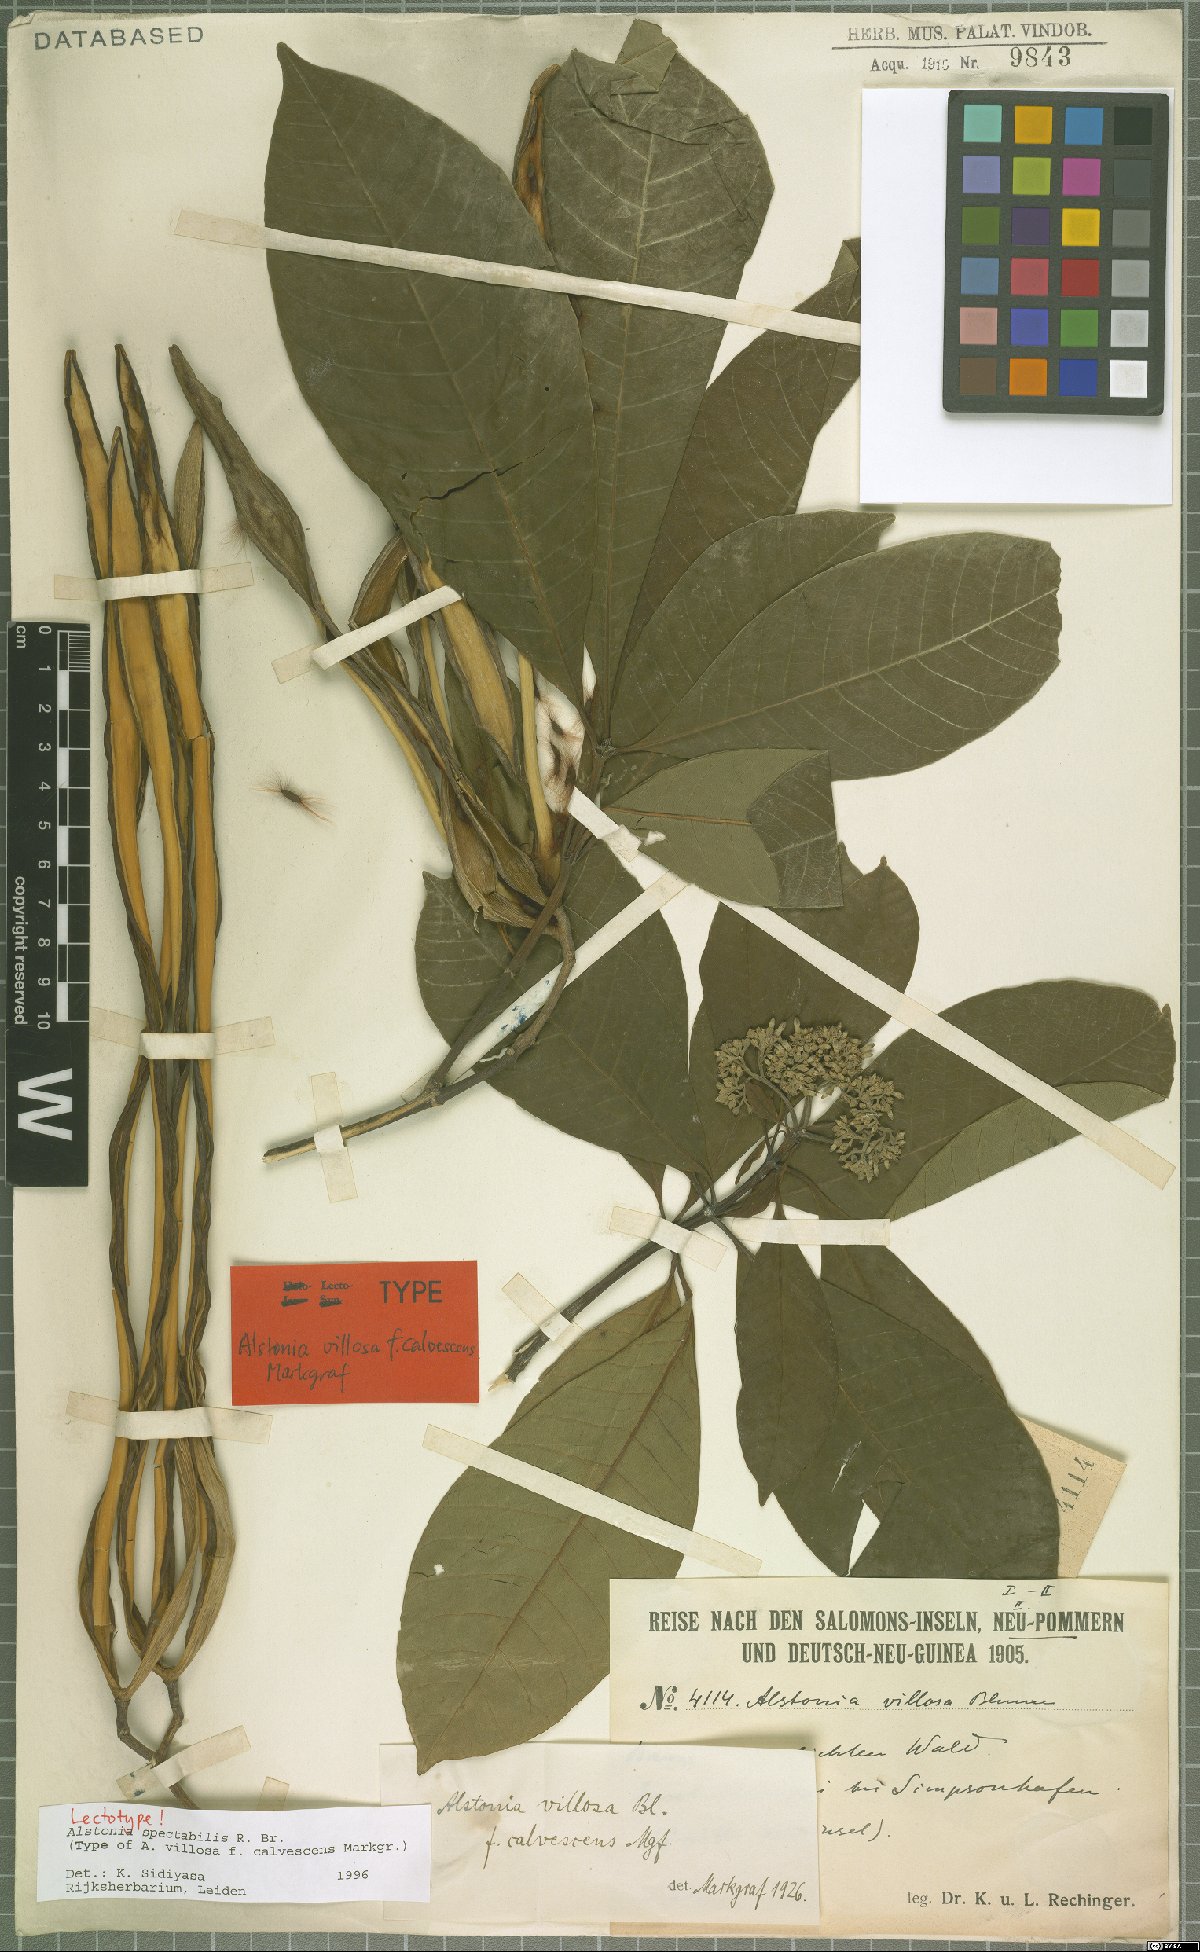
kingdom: Plantae
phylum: Tracheophyta
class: Magnoliopsida
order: Gentianales
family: Apocynaceae
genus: Alstonia
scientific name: Alstonia spectabilis
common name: Milky yellowwood
